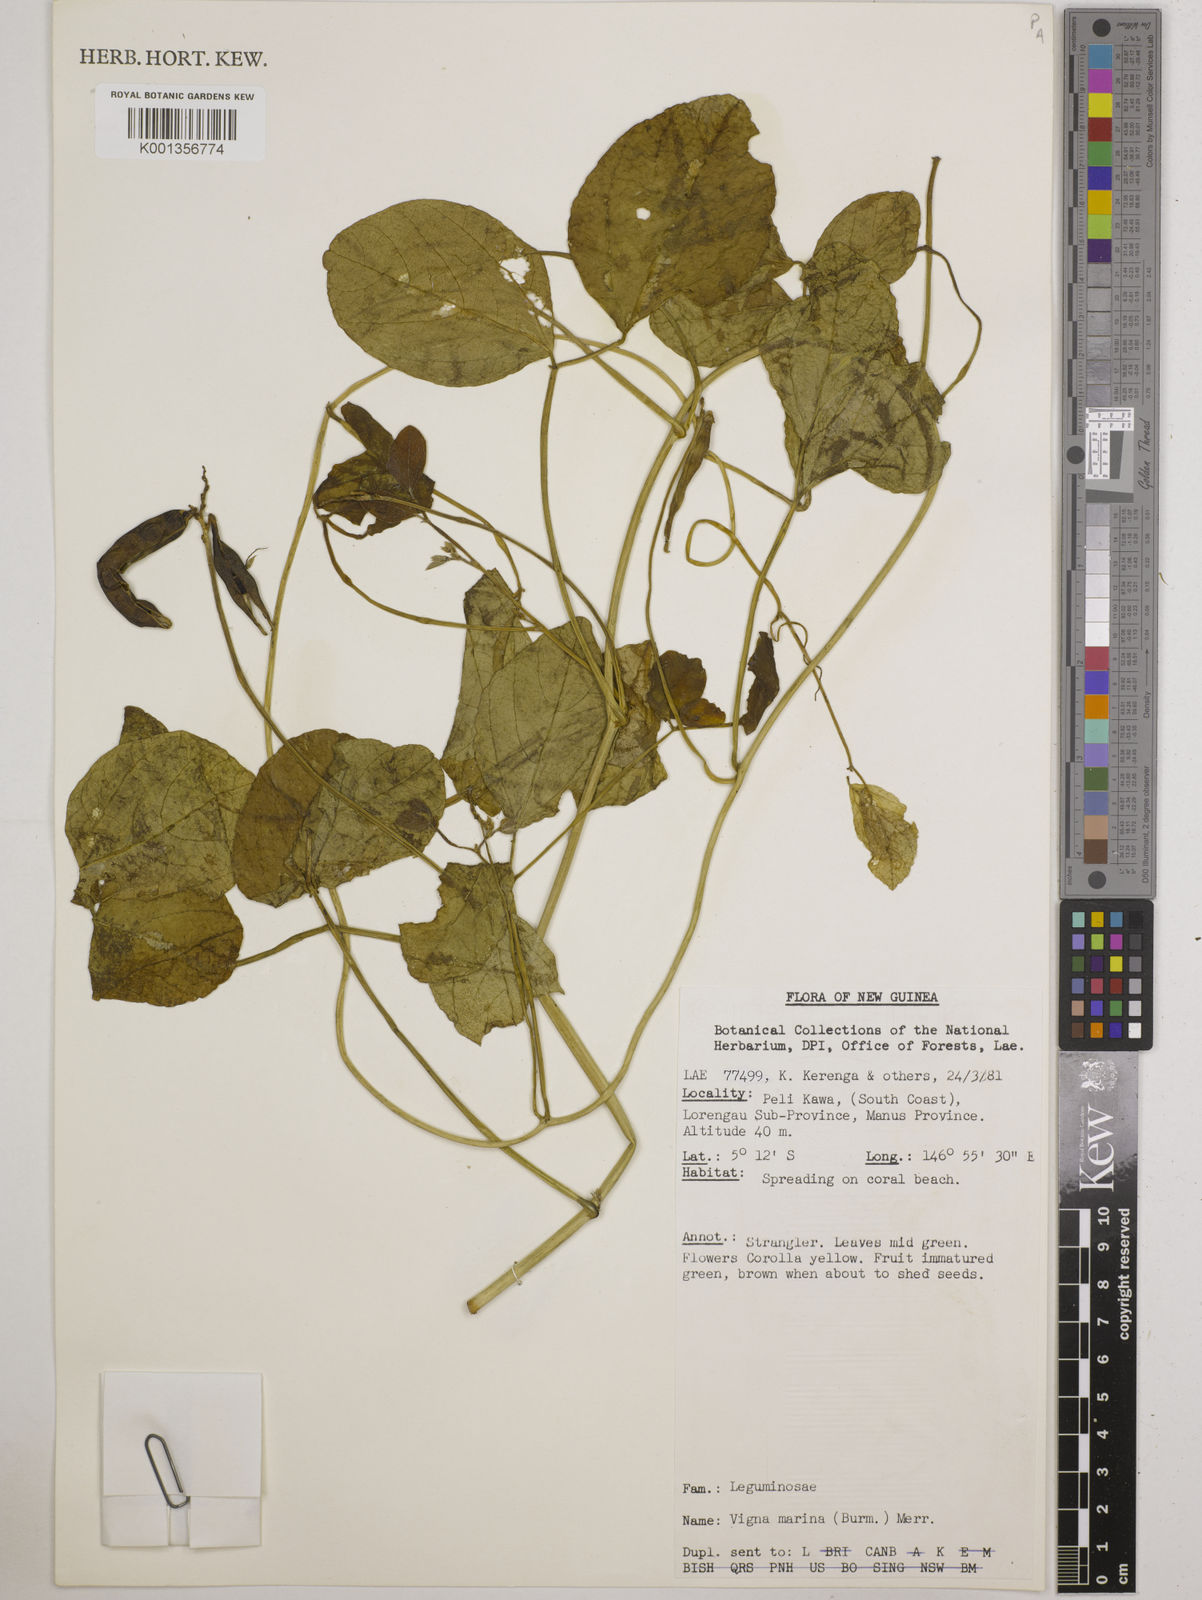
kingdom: Plantae
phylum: Tracheophyta
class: Magnoliopsida
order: Fabales
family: Fabaceae
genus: Vigna
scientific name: Vigna marina
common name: Dune-bean
